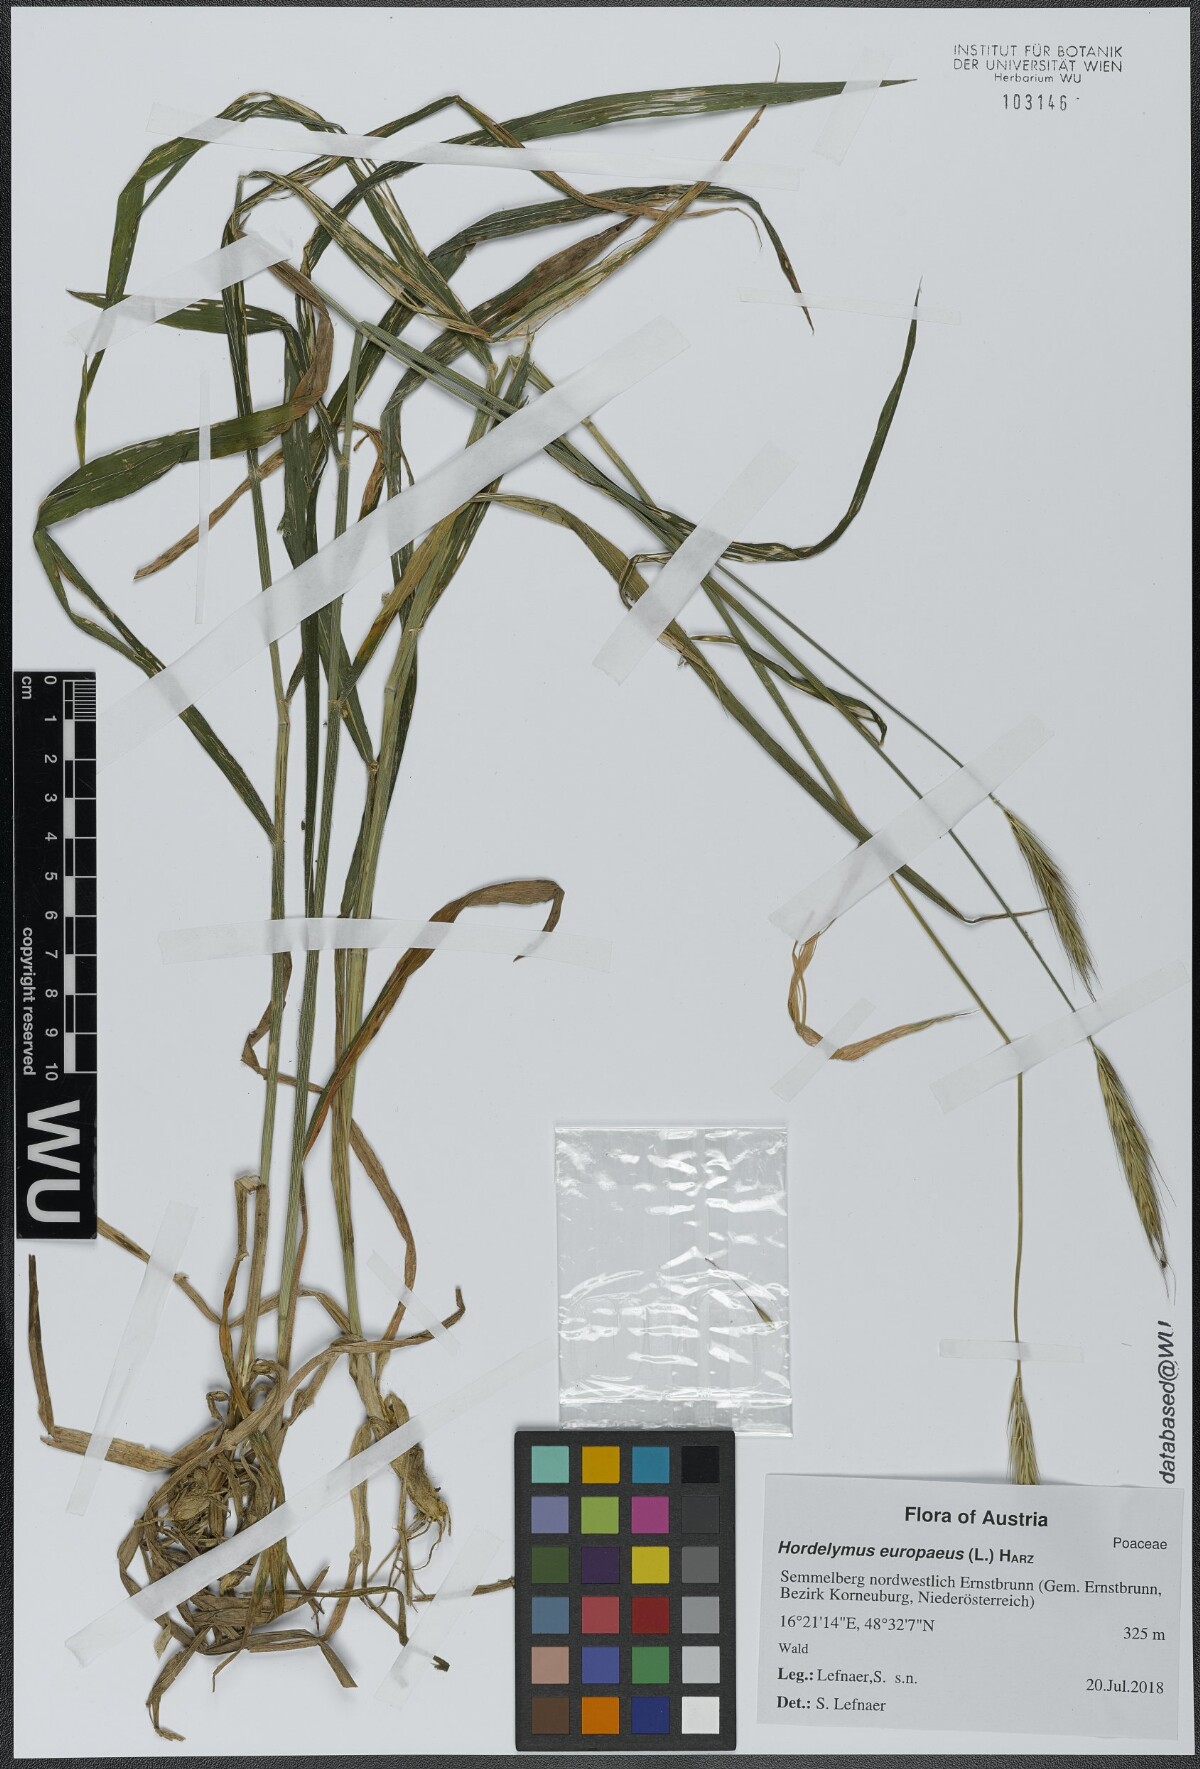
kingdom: Plantae
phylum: Tracheophyta
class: Liliopsida
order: Poales
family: Poaceae
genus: Hordelymus
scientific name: Hordelymus europaeus
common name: Wood-barley
